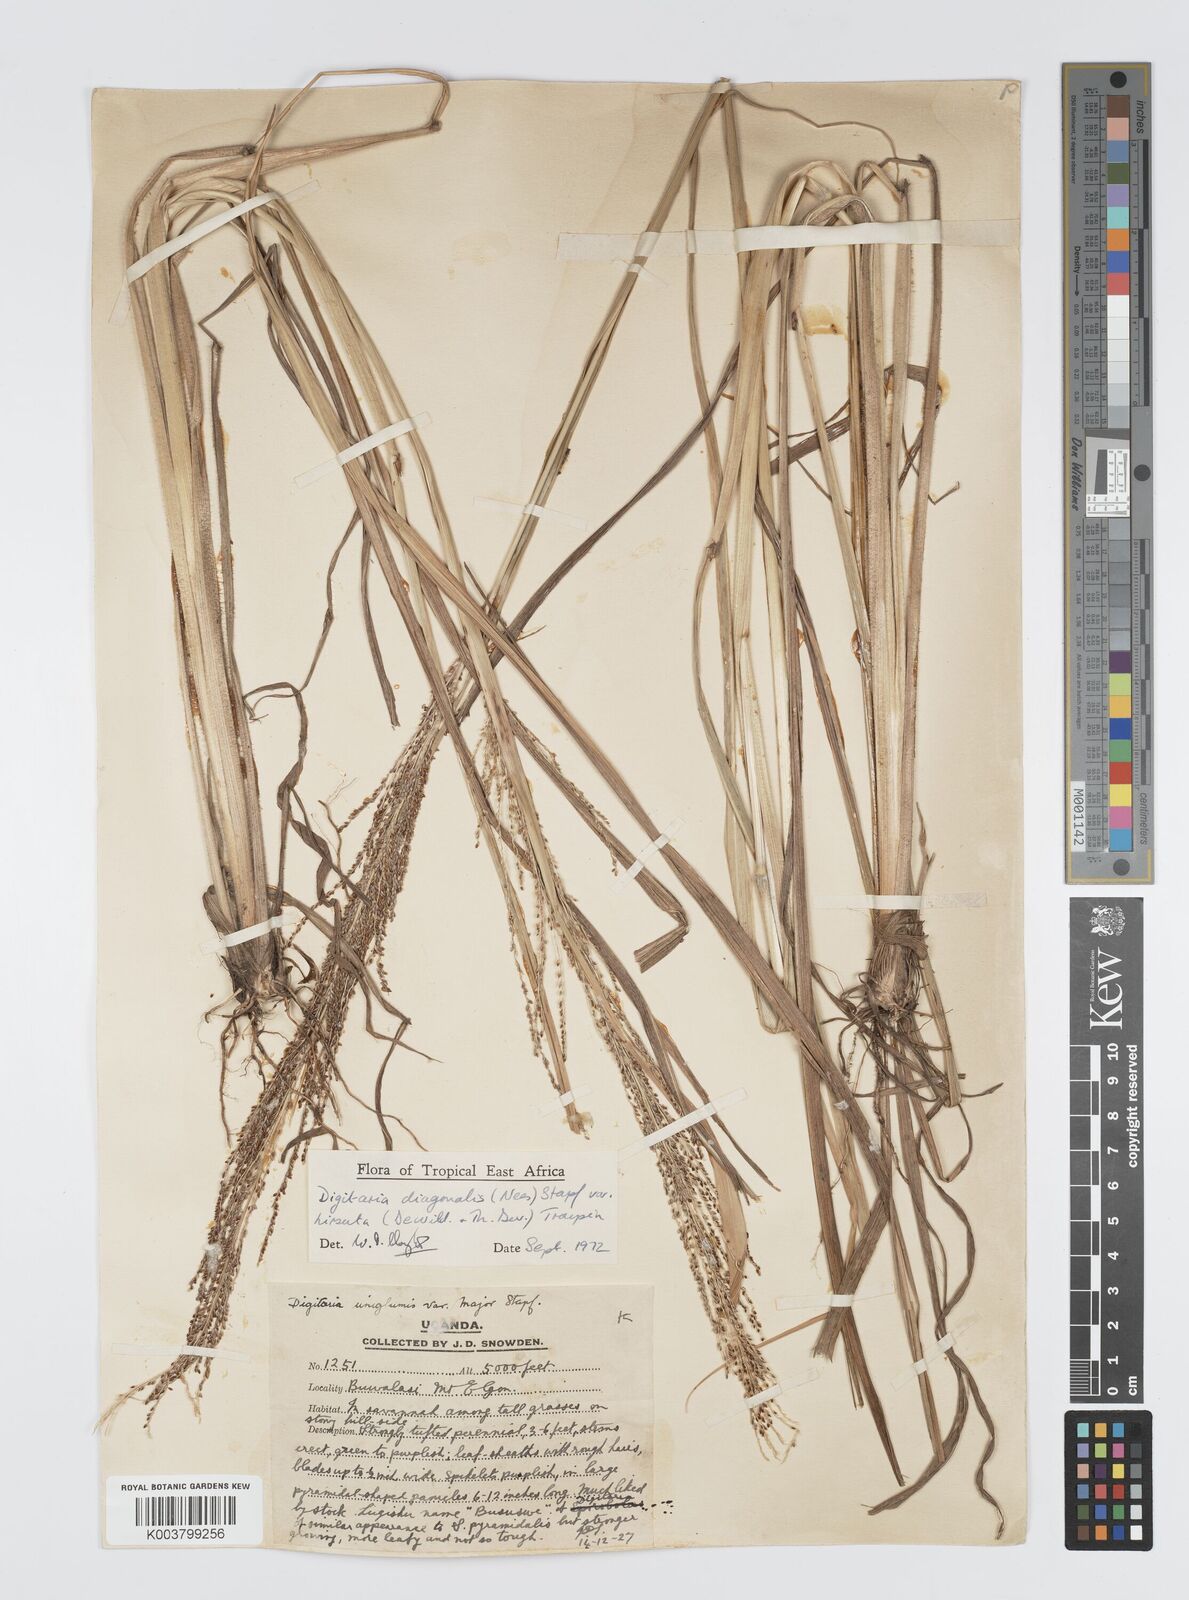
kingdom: Plantae
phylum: Tracheophyta
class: Liliopsida
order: Poales
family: Poaceae
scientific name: Poaceae
